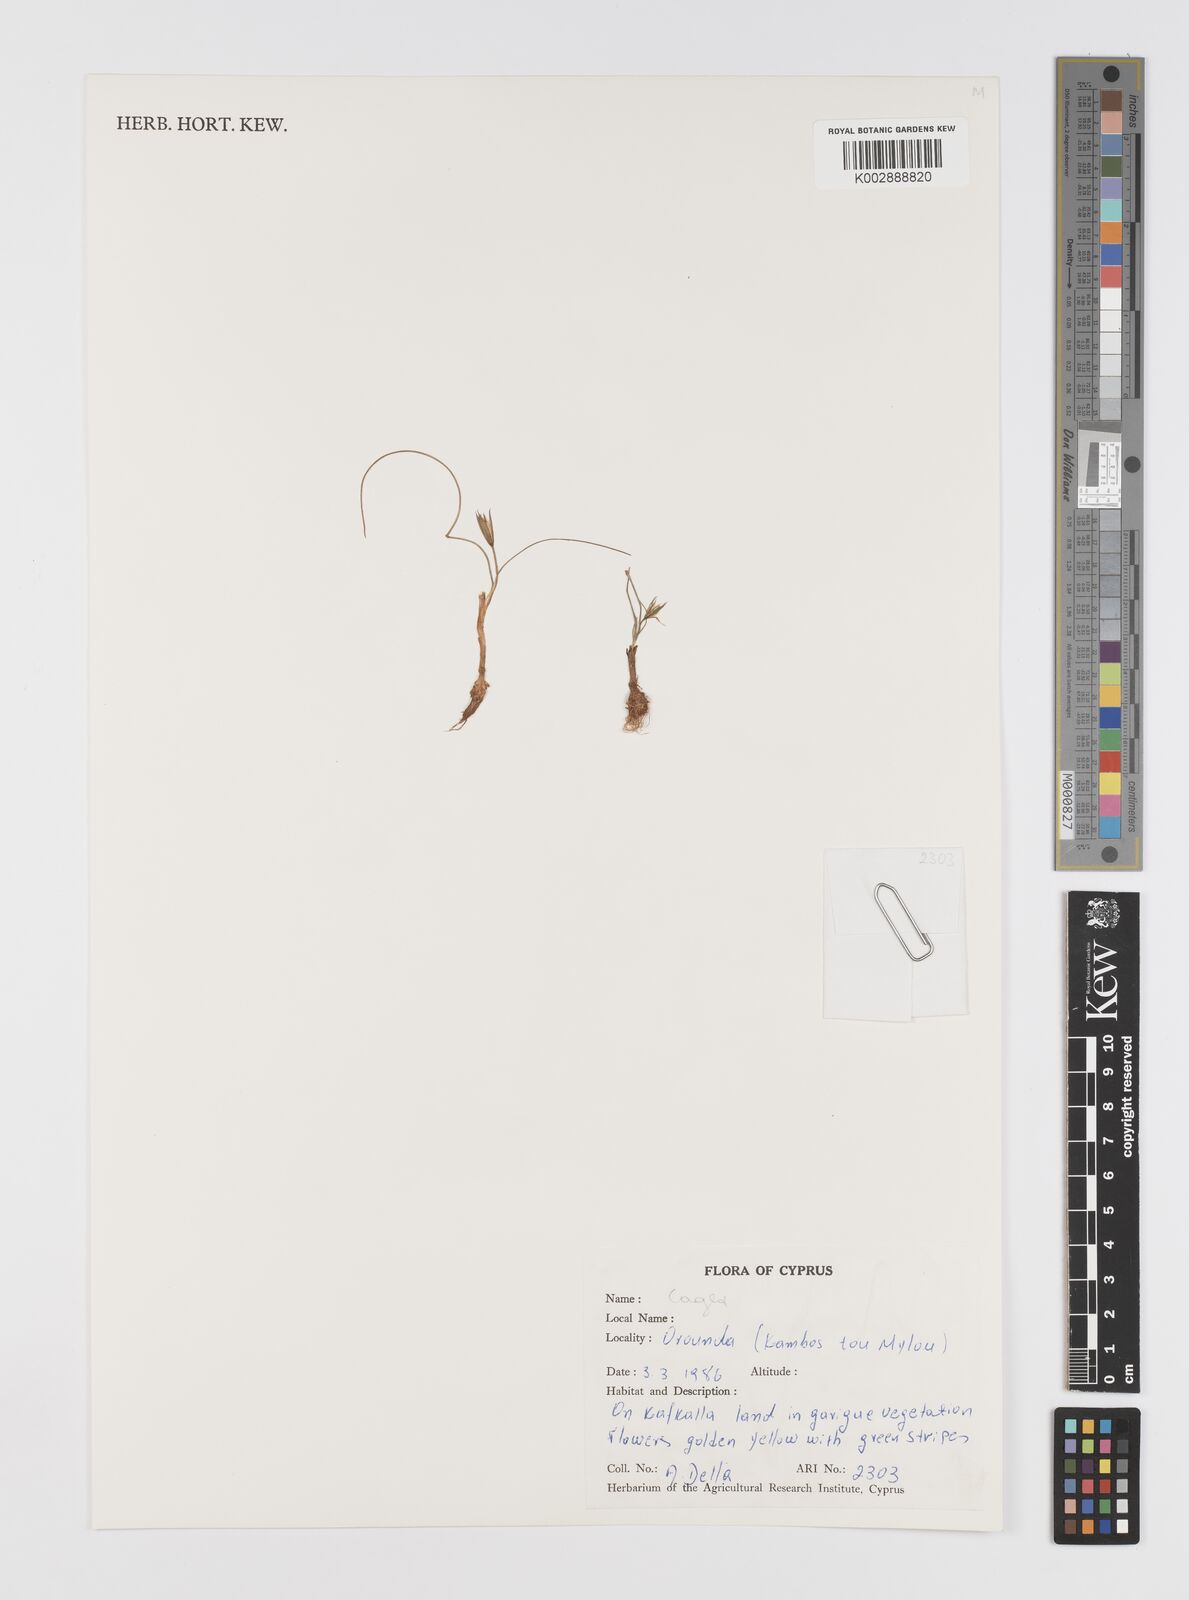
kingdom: Plantae
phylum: Tracheophyta
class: Liliopsida
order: Liliales
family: Liliaceae
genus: Gagea
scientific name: Gagea
